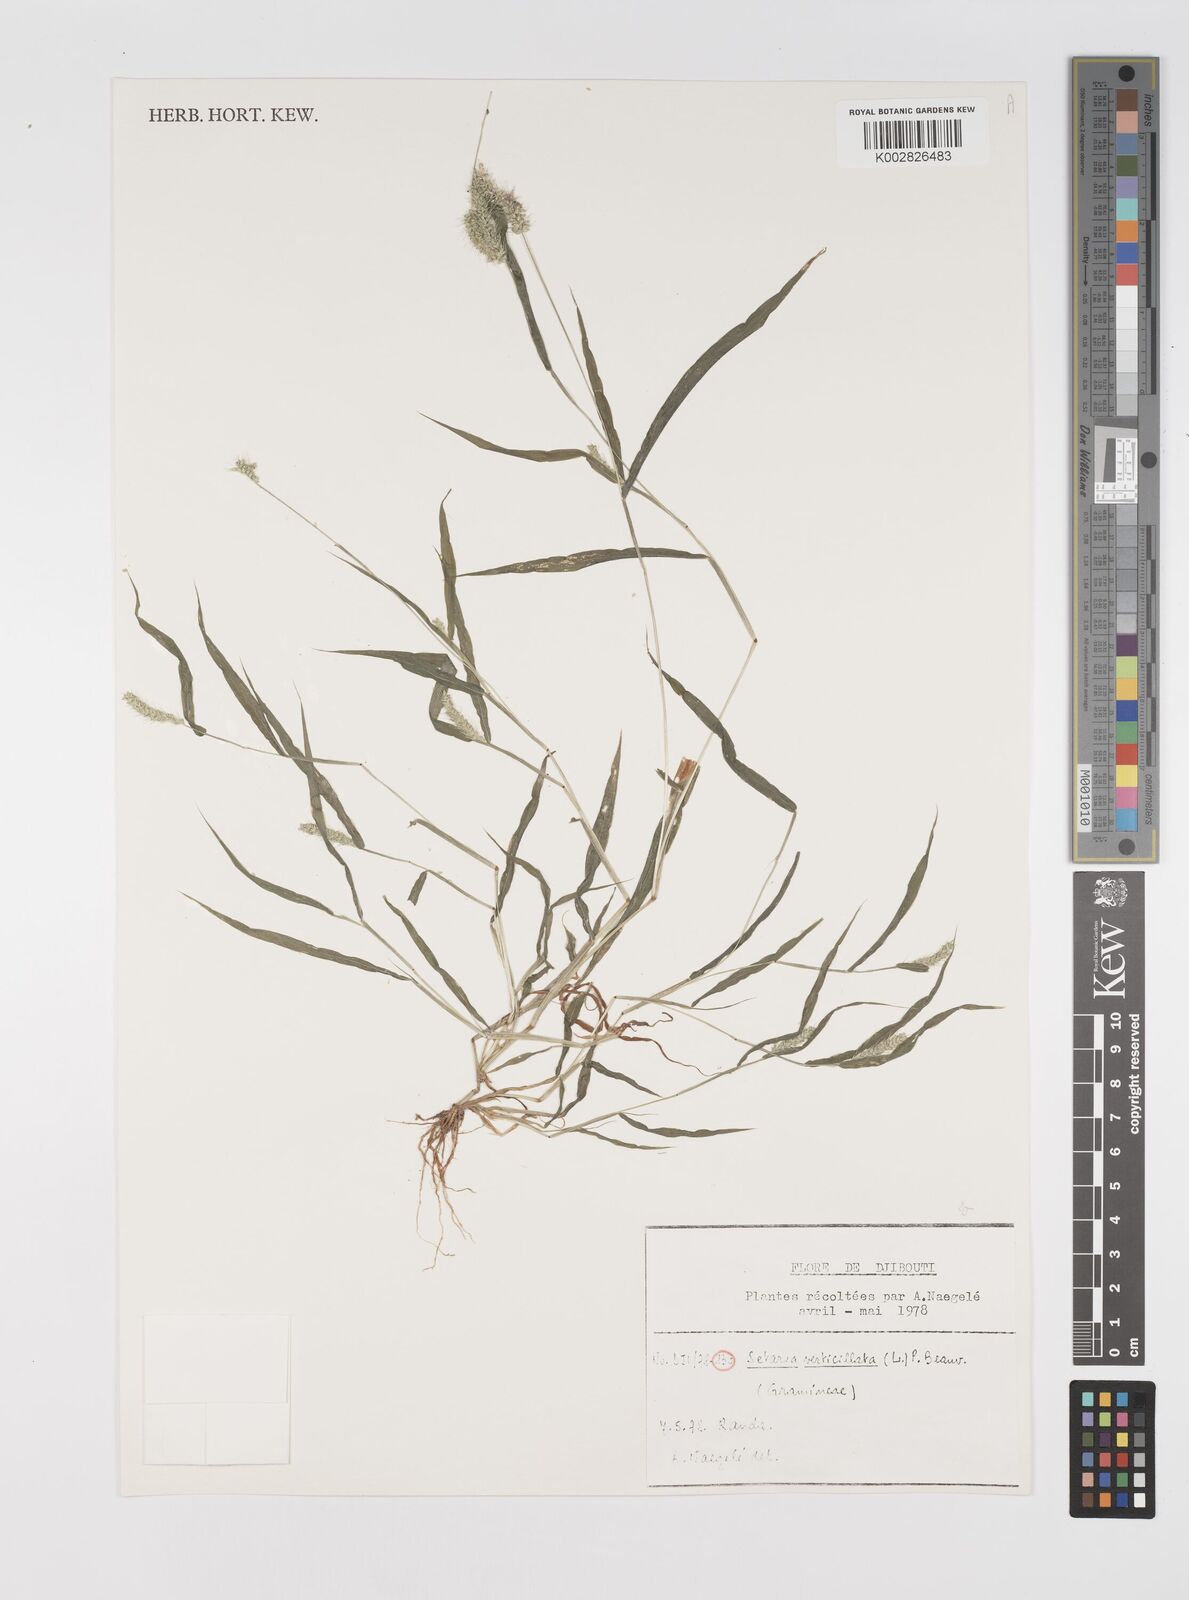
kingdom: Plantae
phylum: Tracheophyta
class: Liliopsida
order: Poales
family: Poaceae
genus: Setaria
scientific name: Setaria verticillata
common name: Hooked bristlegrass
